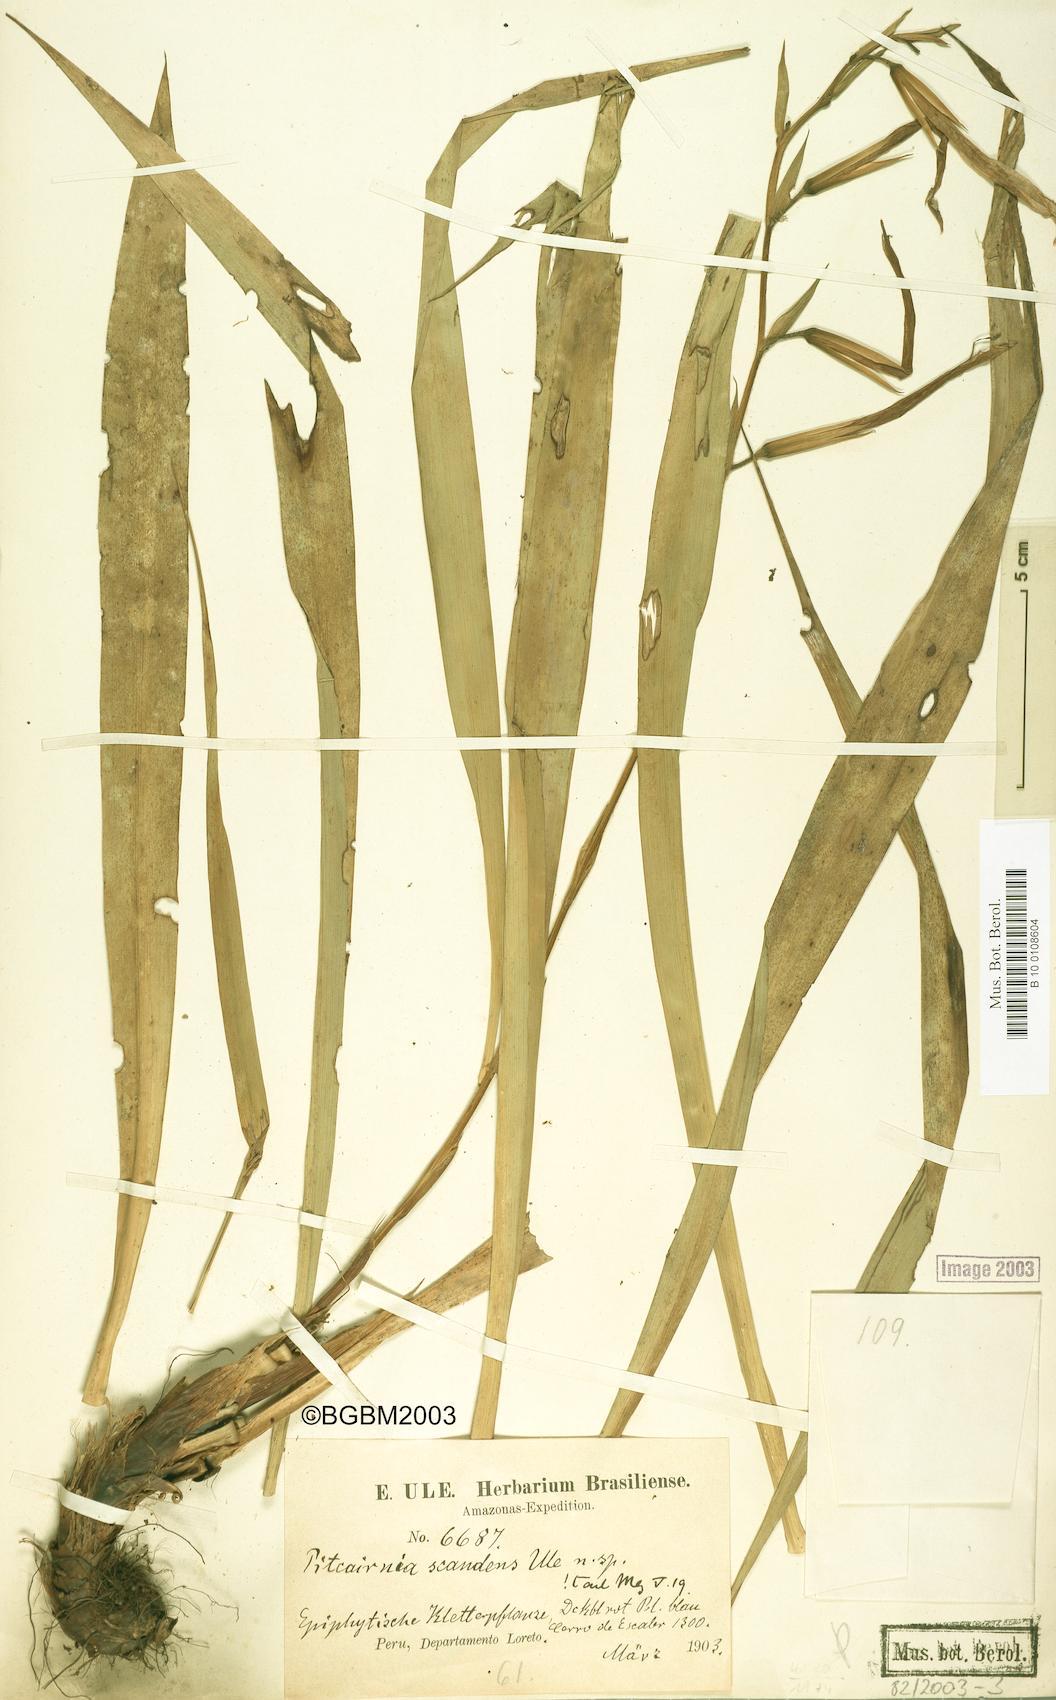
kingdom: Plantae
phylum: Tracheophyta
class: Liliopsida
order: Poales
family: Bromeliaceae
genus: Pitcairnia
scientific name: Pitcairnia scandens
